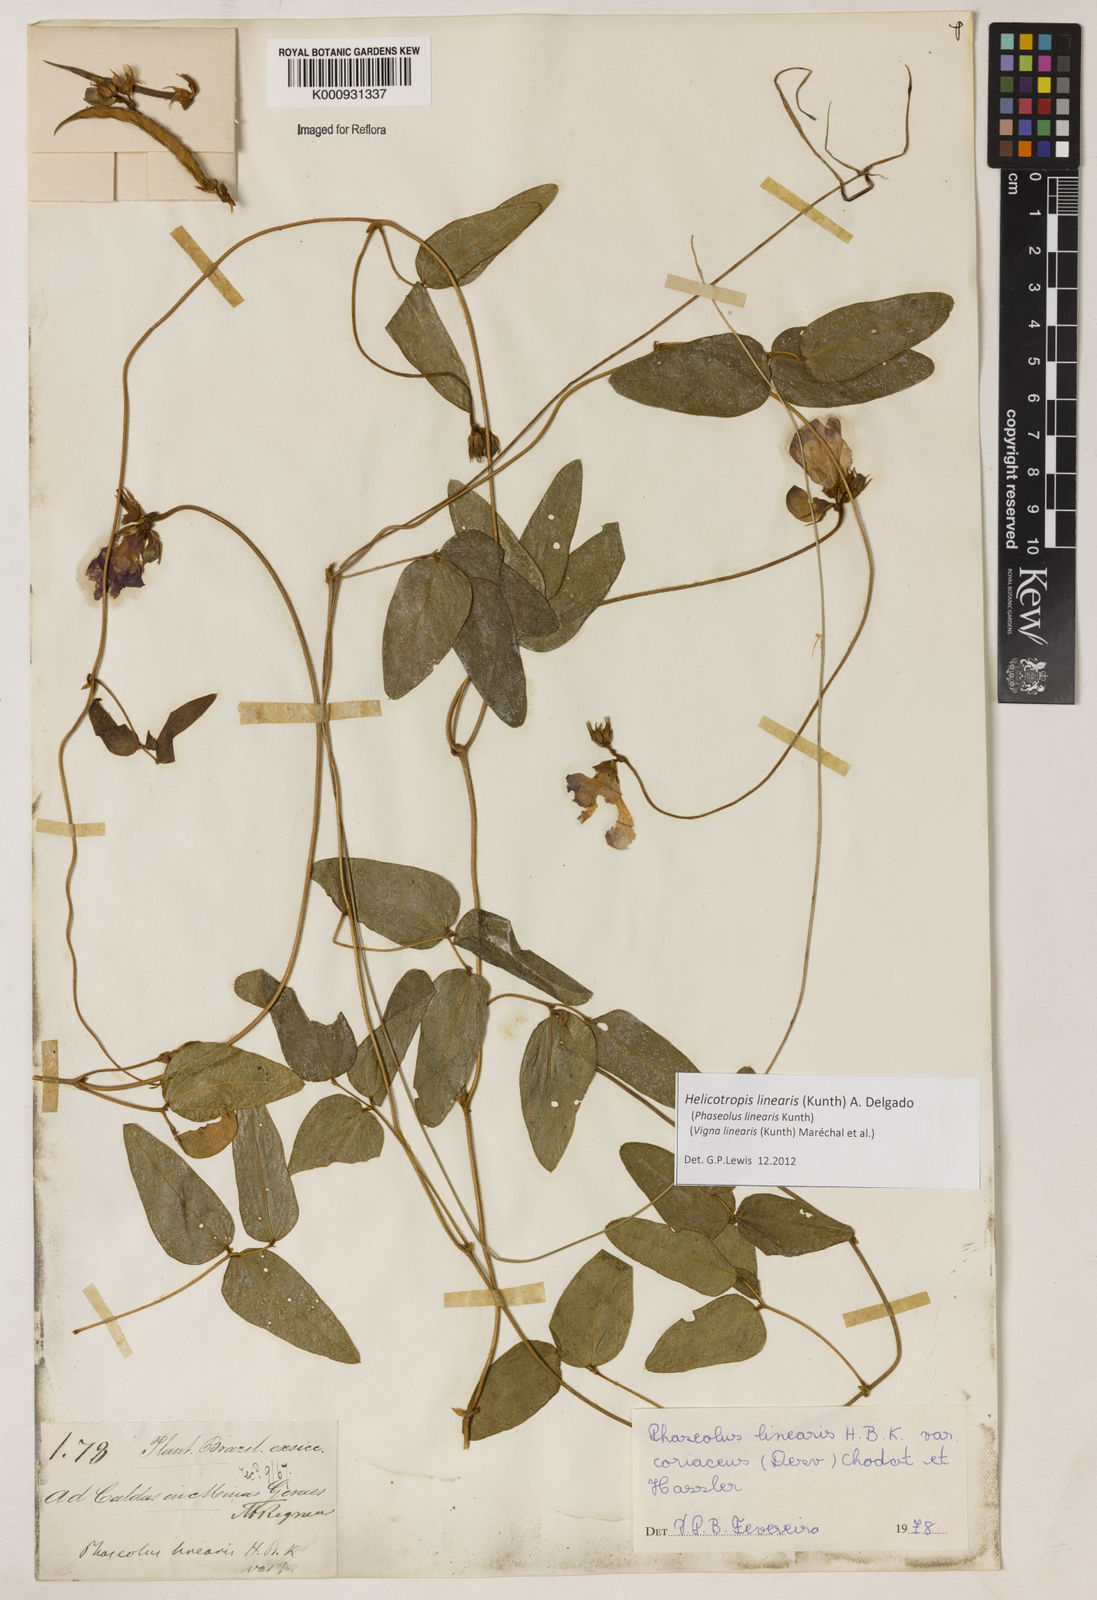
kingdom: Plantae
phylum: Tracheophyta
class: Magnoliopsida
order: Fabales
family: Fabaceae
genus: Helicotropis
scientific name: Helicotropis linearis
